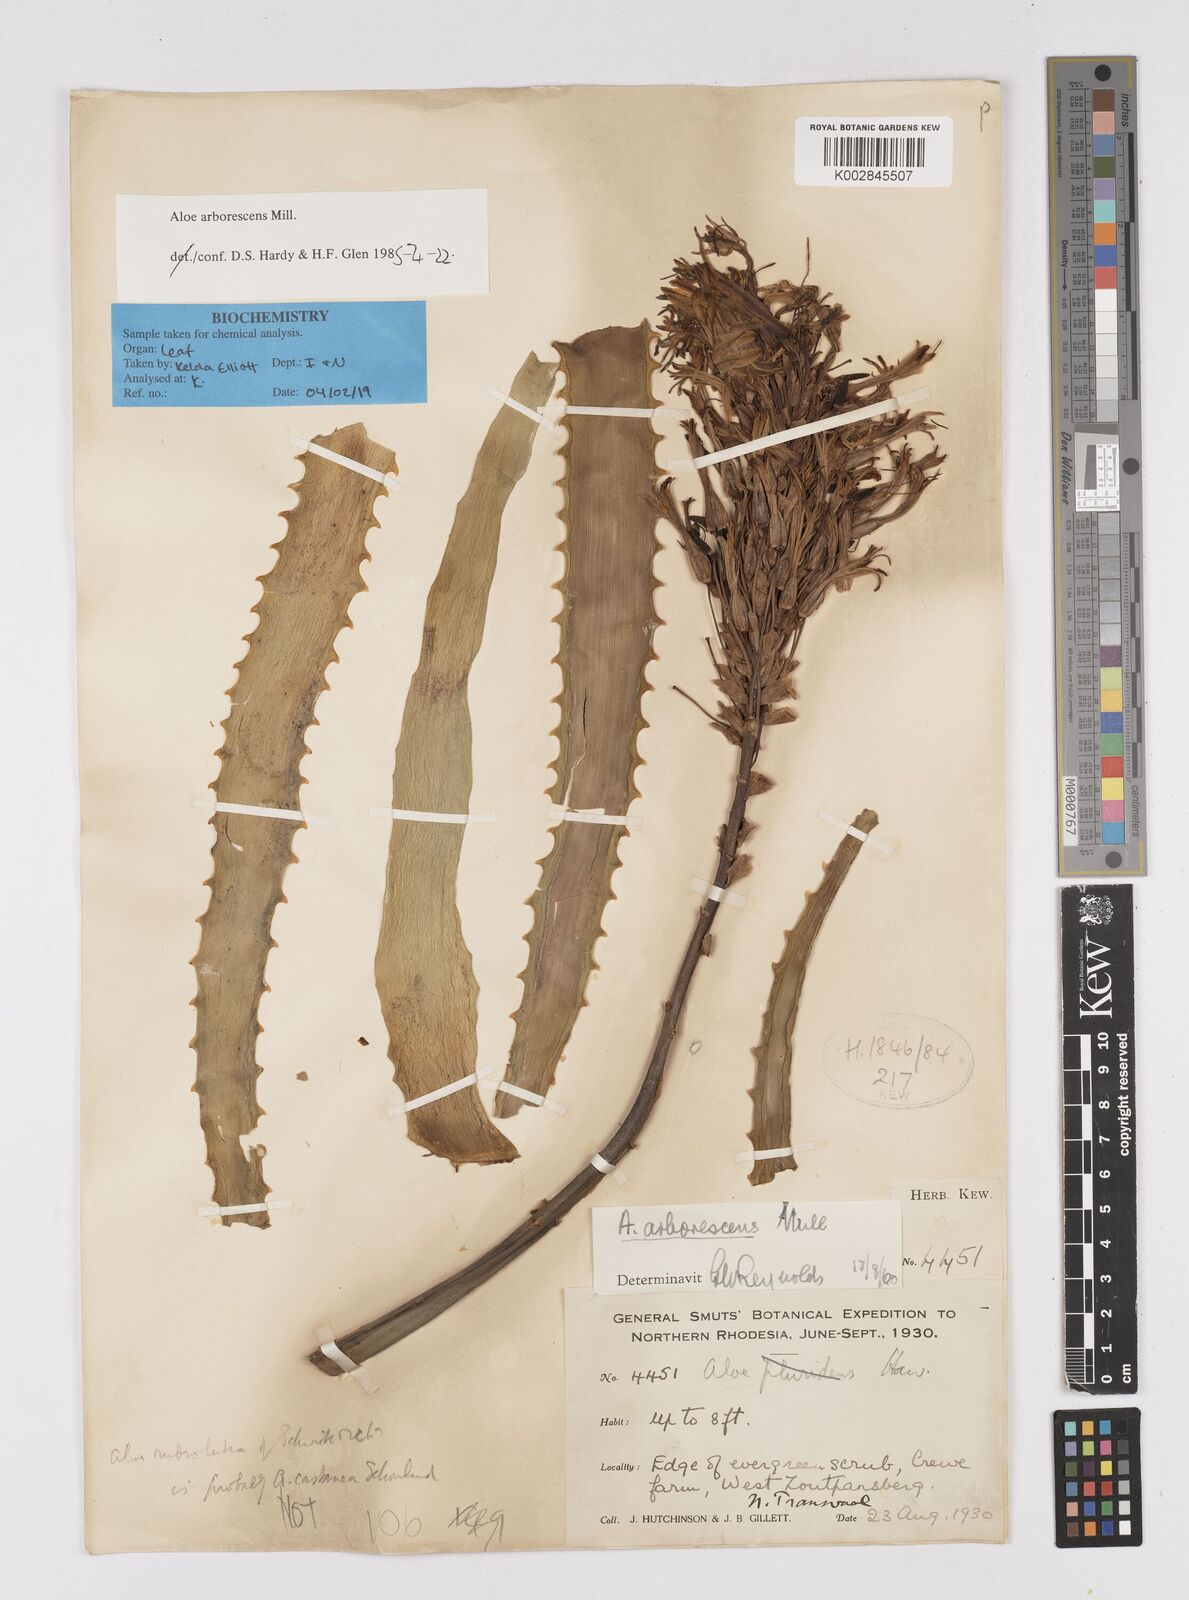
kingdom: Plantae
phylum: Tracheophyta
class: Liliopsida
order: Asparagales
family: Asphodelaceae
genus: Aloe
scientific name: Aloe arborescens
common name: Candelabra aloe
